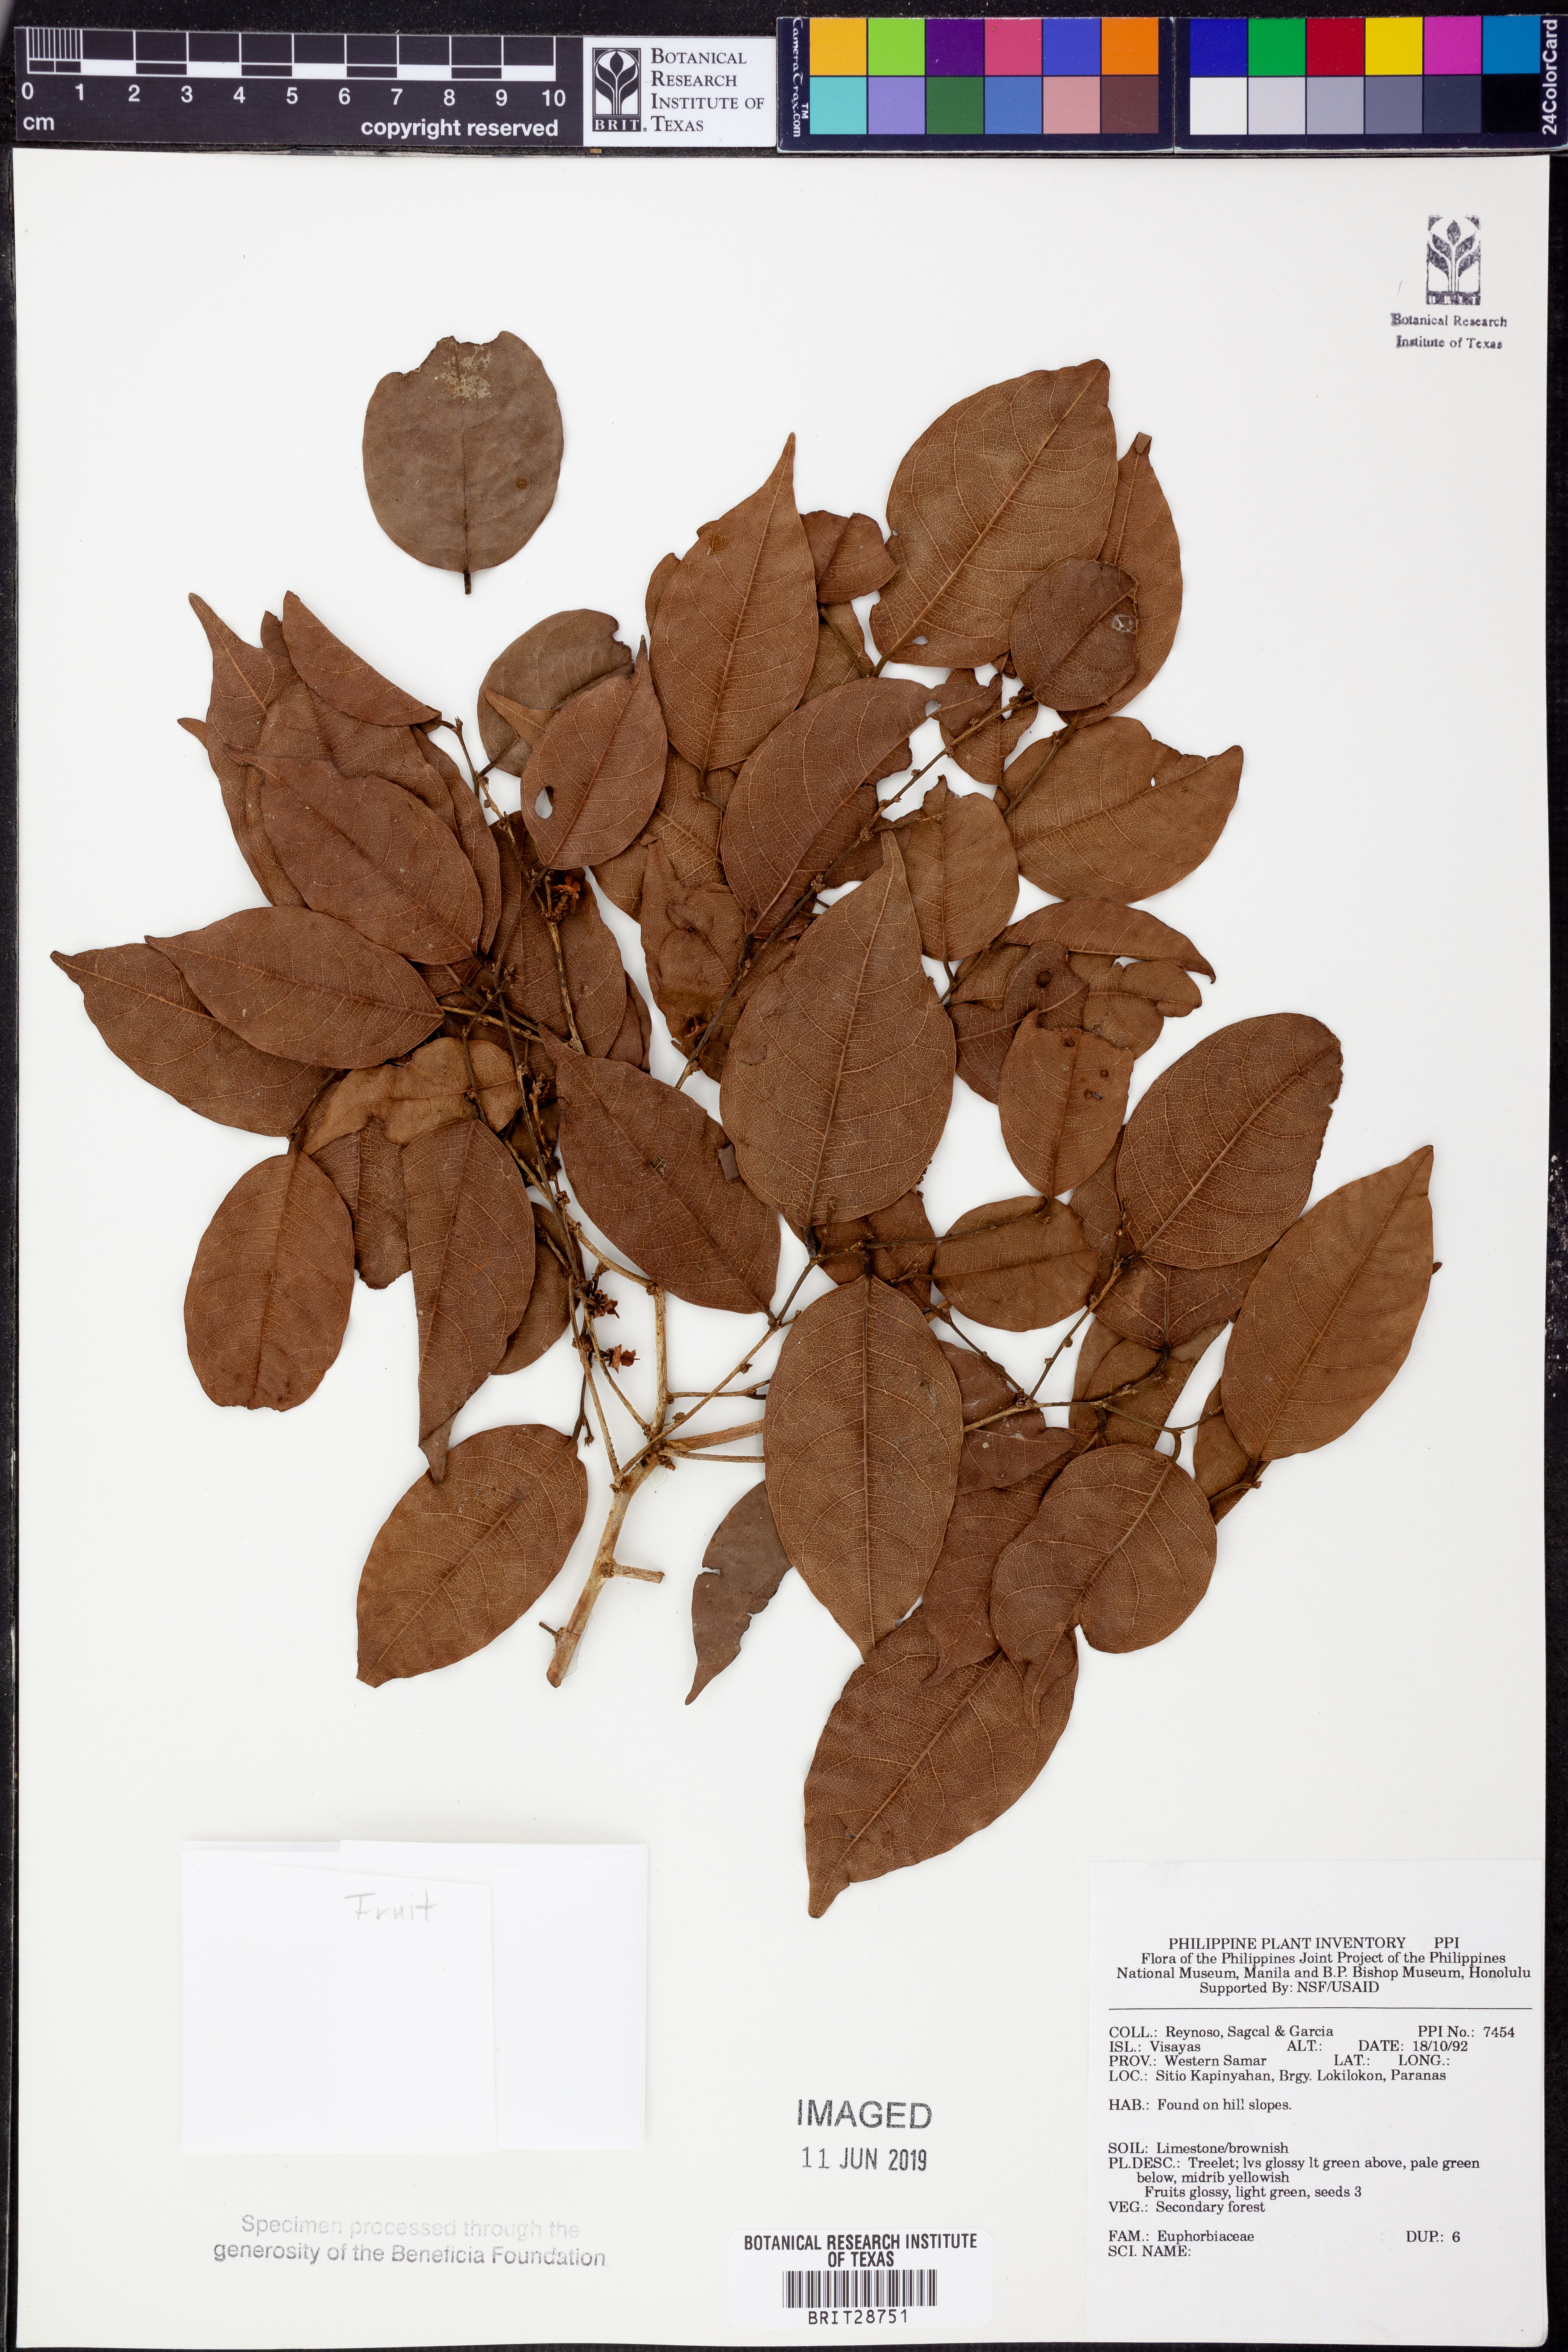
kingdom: Plantae
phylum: Tracheophyta
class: Magnoliopsida
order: Malpighiales
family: Euphorbiaceae
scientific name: Euphorbiaceae
